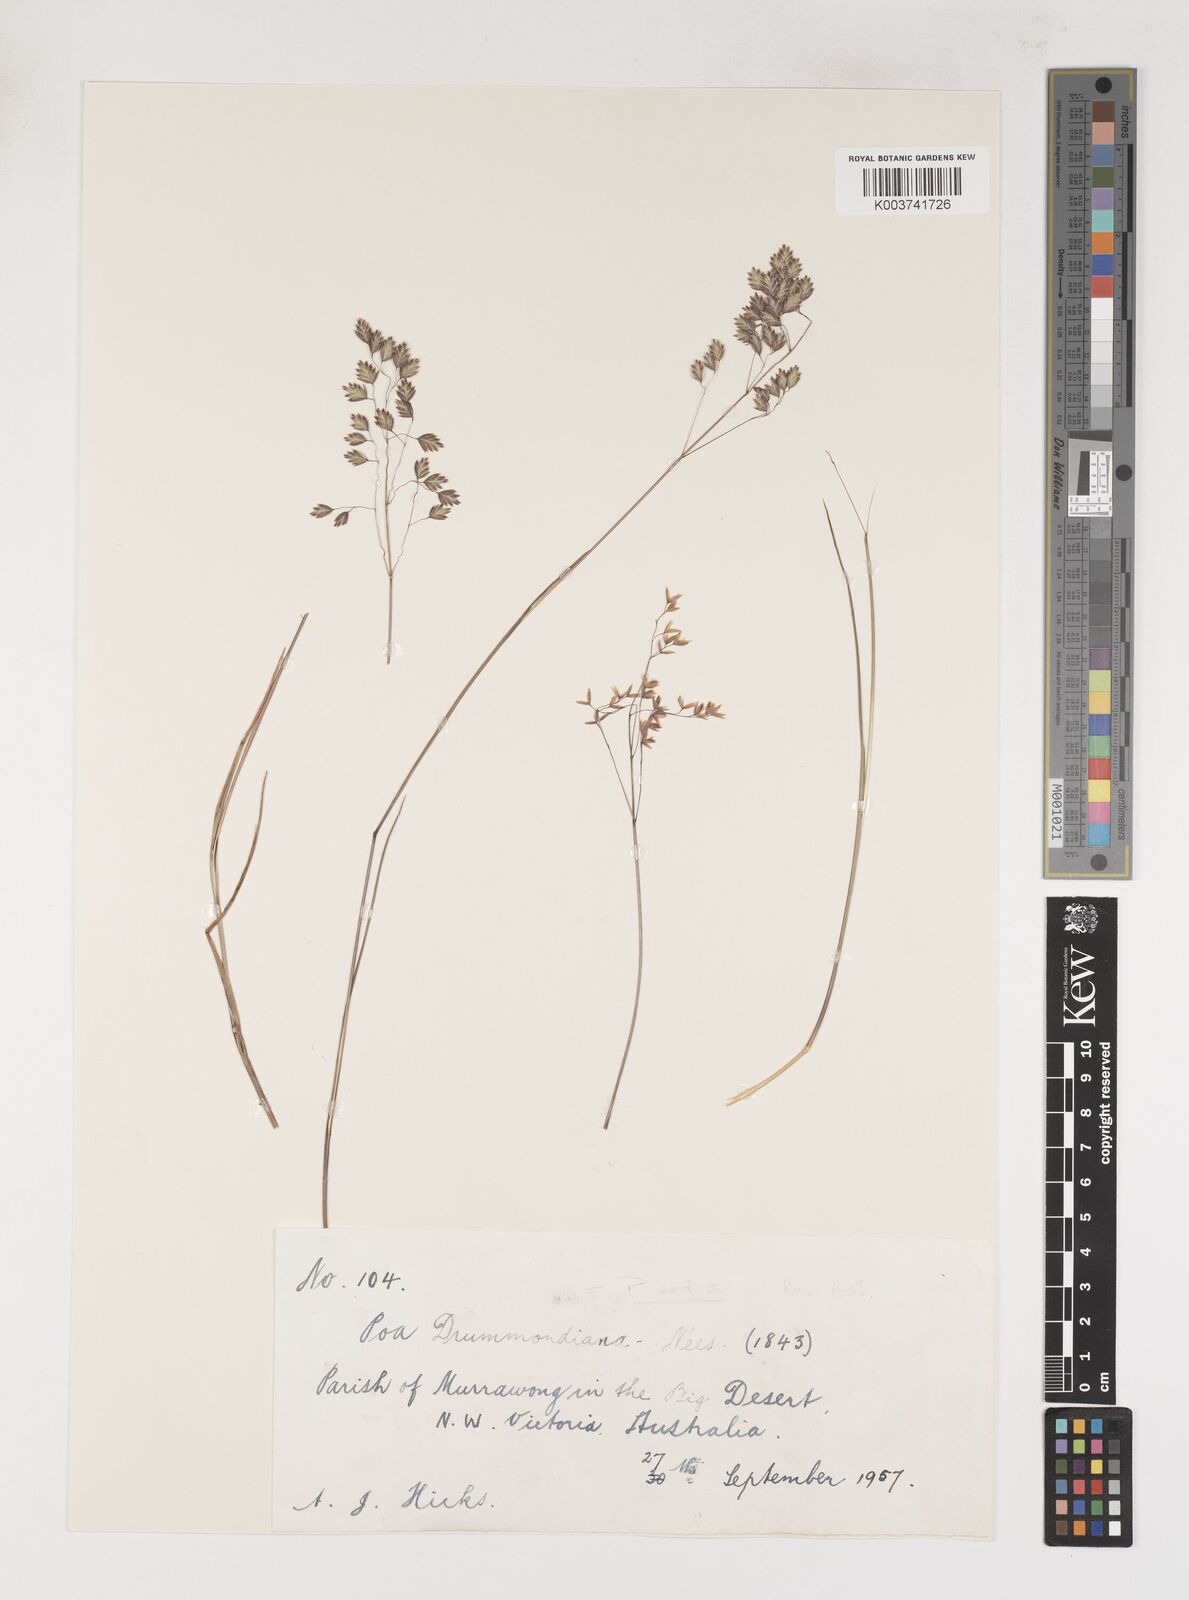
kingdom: Plantae
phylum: Tracheophyta
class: Liliopsida
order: Poales
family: Poaceae
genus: Poa
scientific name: Poa drummondiana
